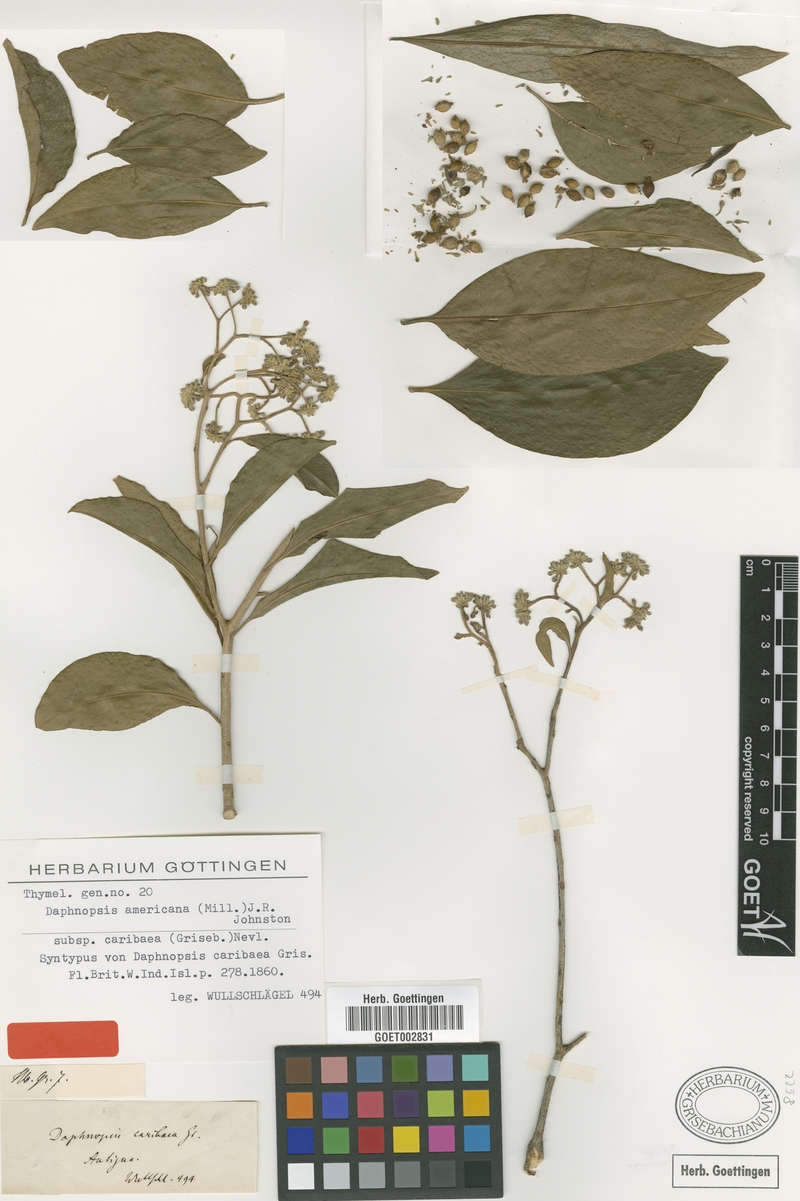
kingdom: Plantae
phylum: Tracheophyta
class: Magnoliopsida
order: Malvales
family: Thymelaeaceae
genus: Daphnopsis
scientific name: Daphnopsis americana
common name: Maho
